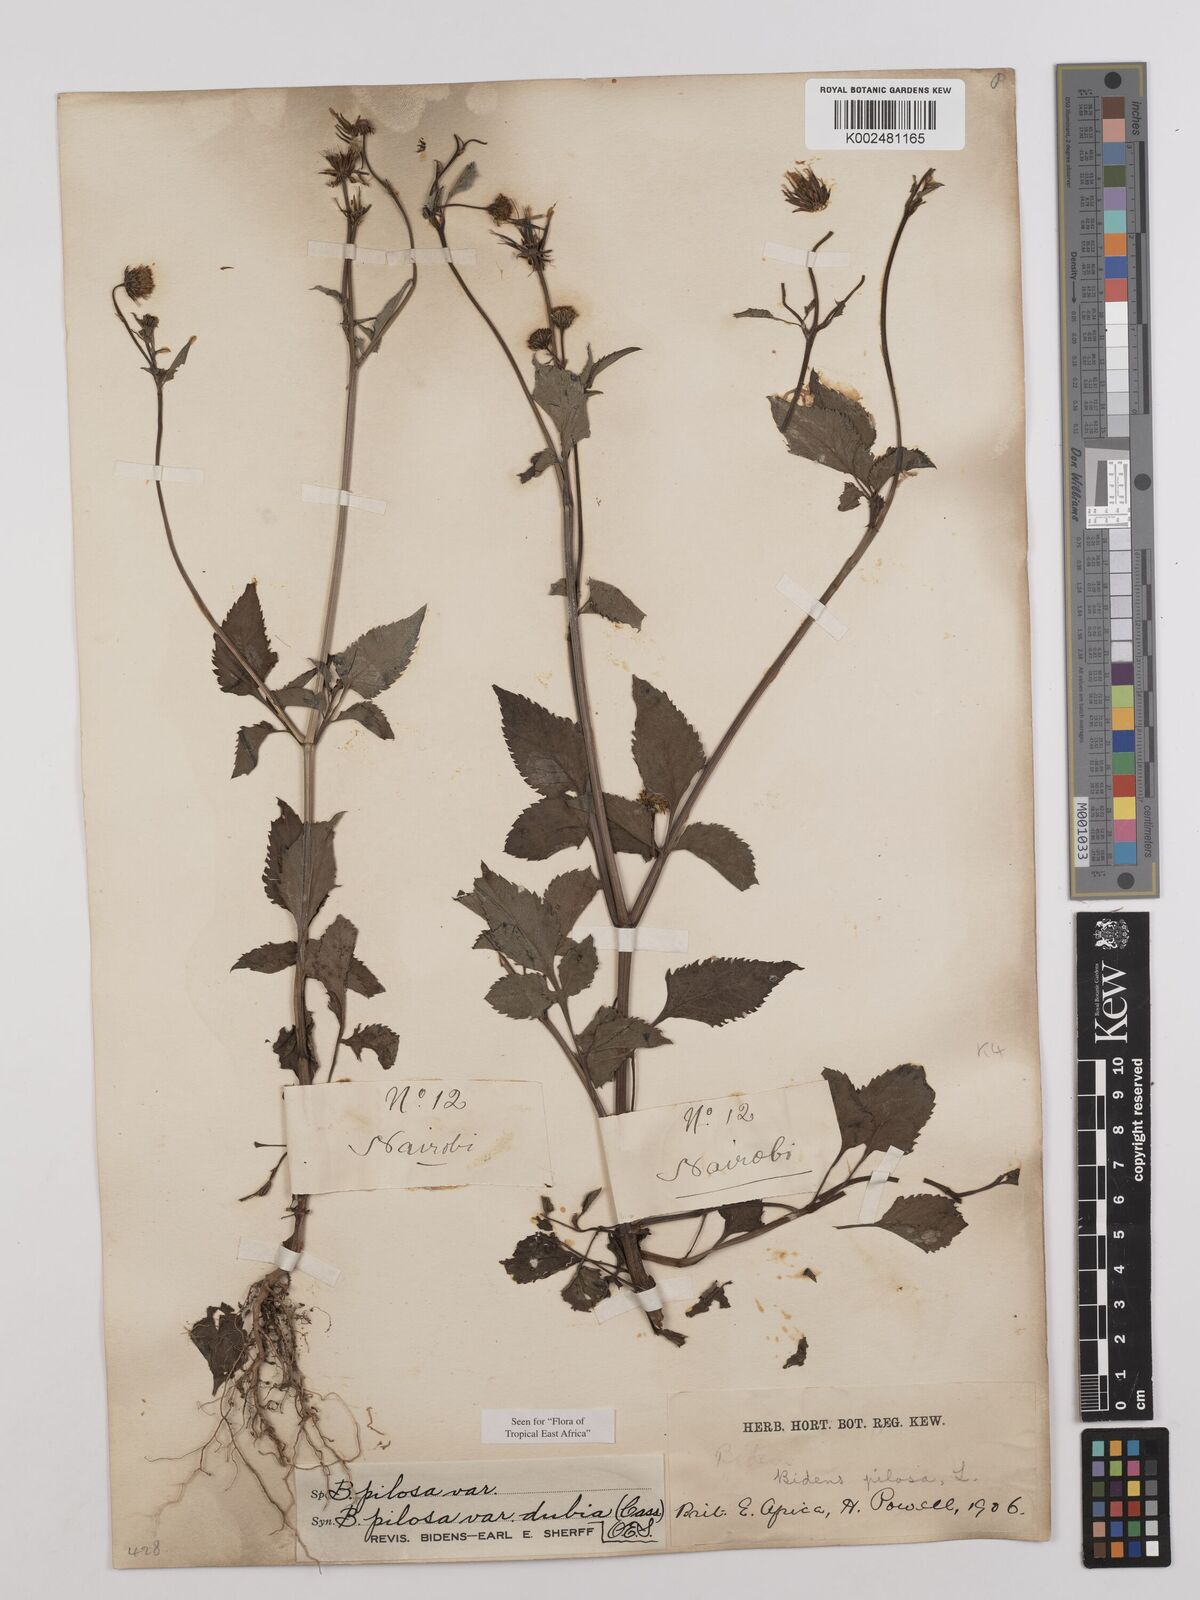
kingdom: Plantae
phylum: Tracheophyta
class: Magnoliopsida
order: Asterales
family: Asteraceae
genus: Bidens
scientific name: Bidens pilosa
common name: Black-jack
